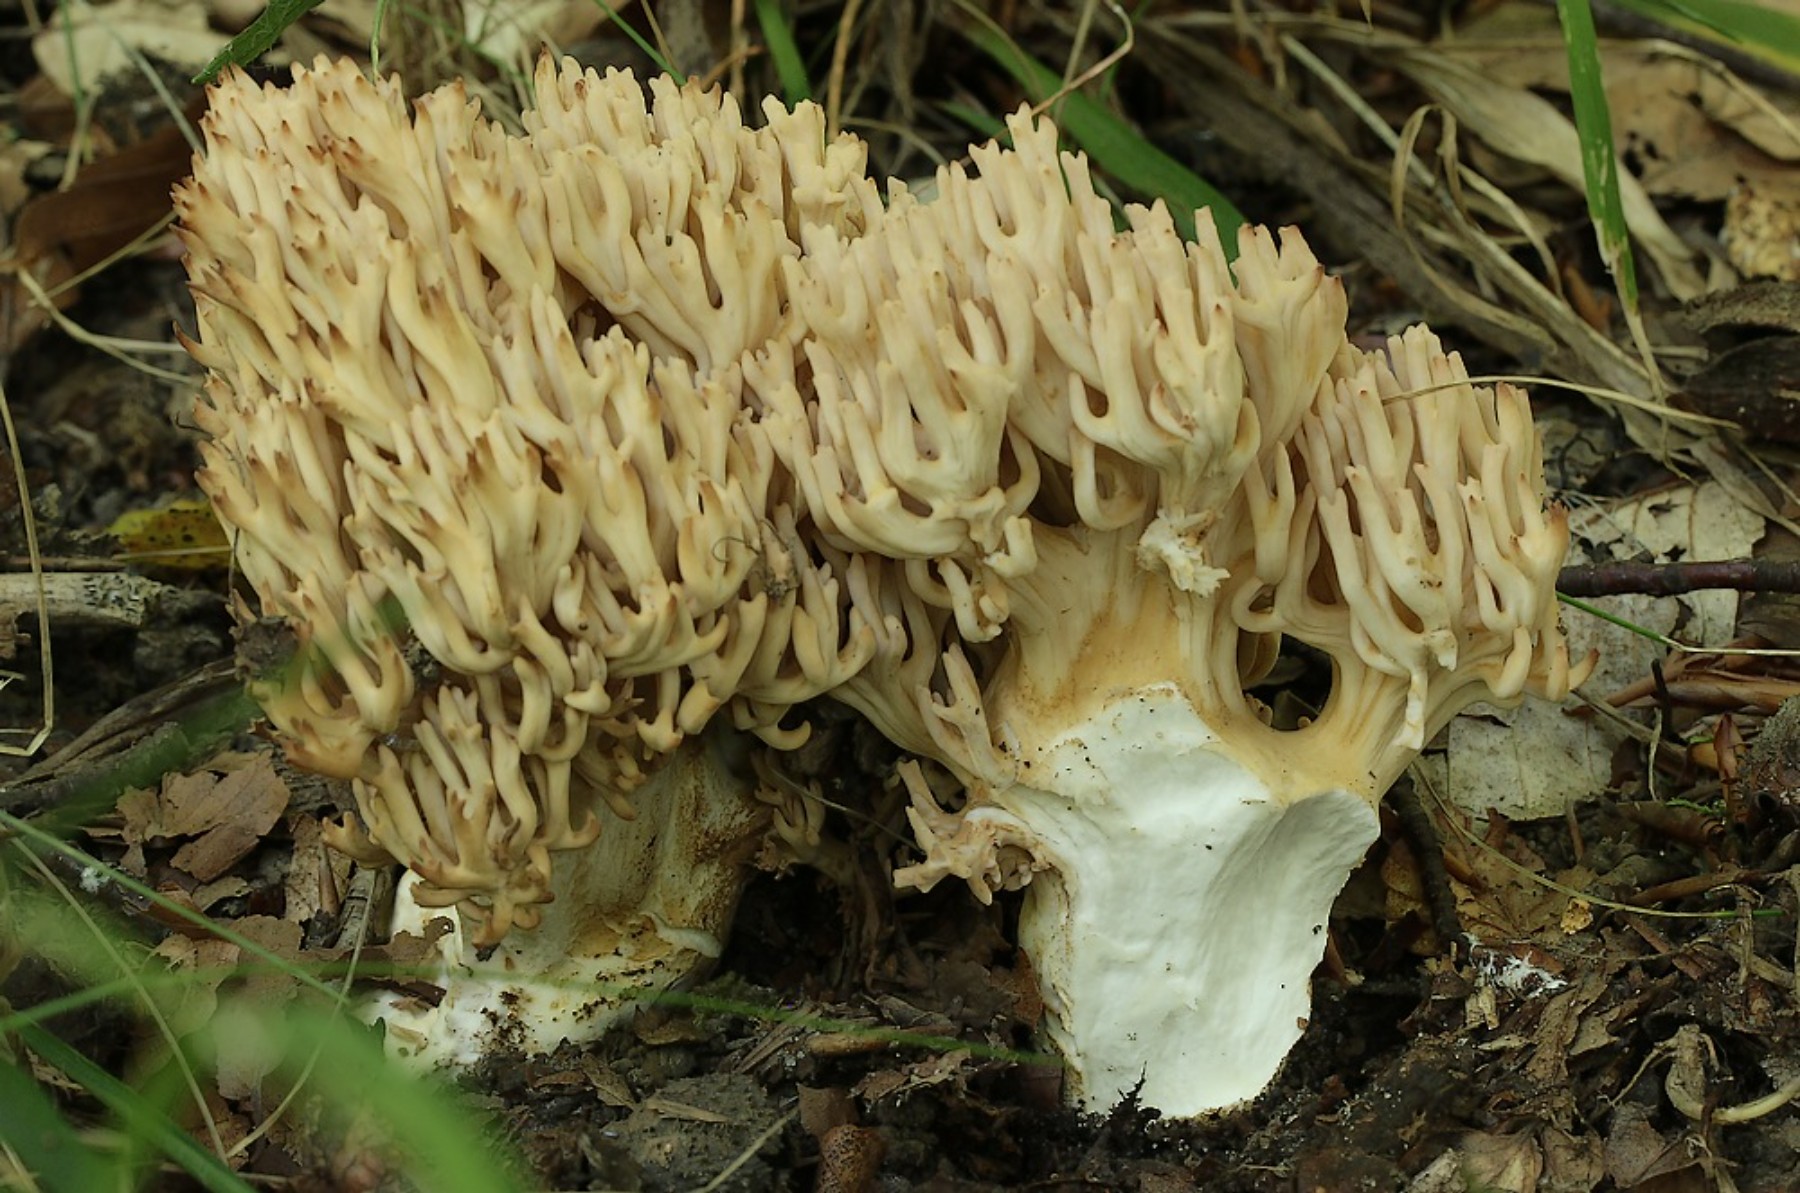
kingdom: Fungi
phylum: Basidiomycota
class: Agaricomycetes
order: Gomphales
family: Gomphaceae
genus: Ramaria
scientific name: Ramaria
